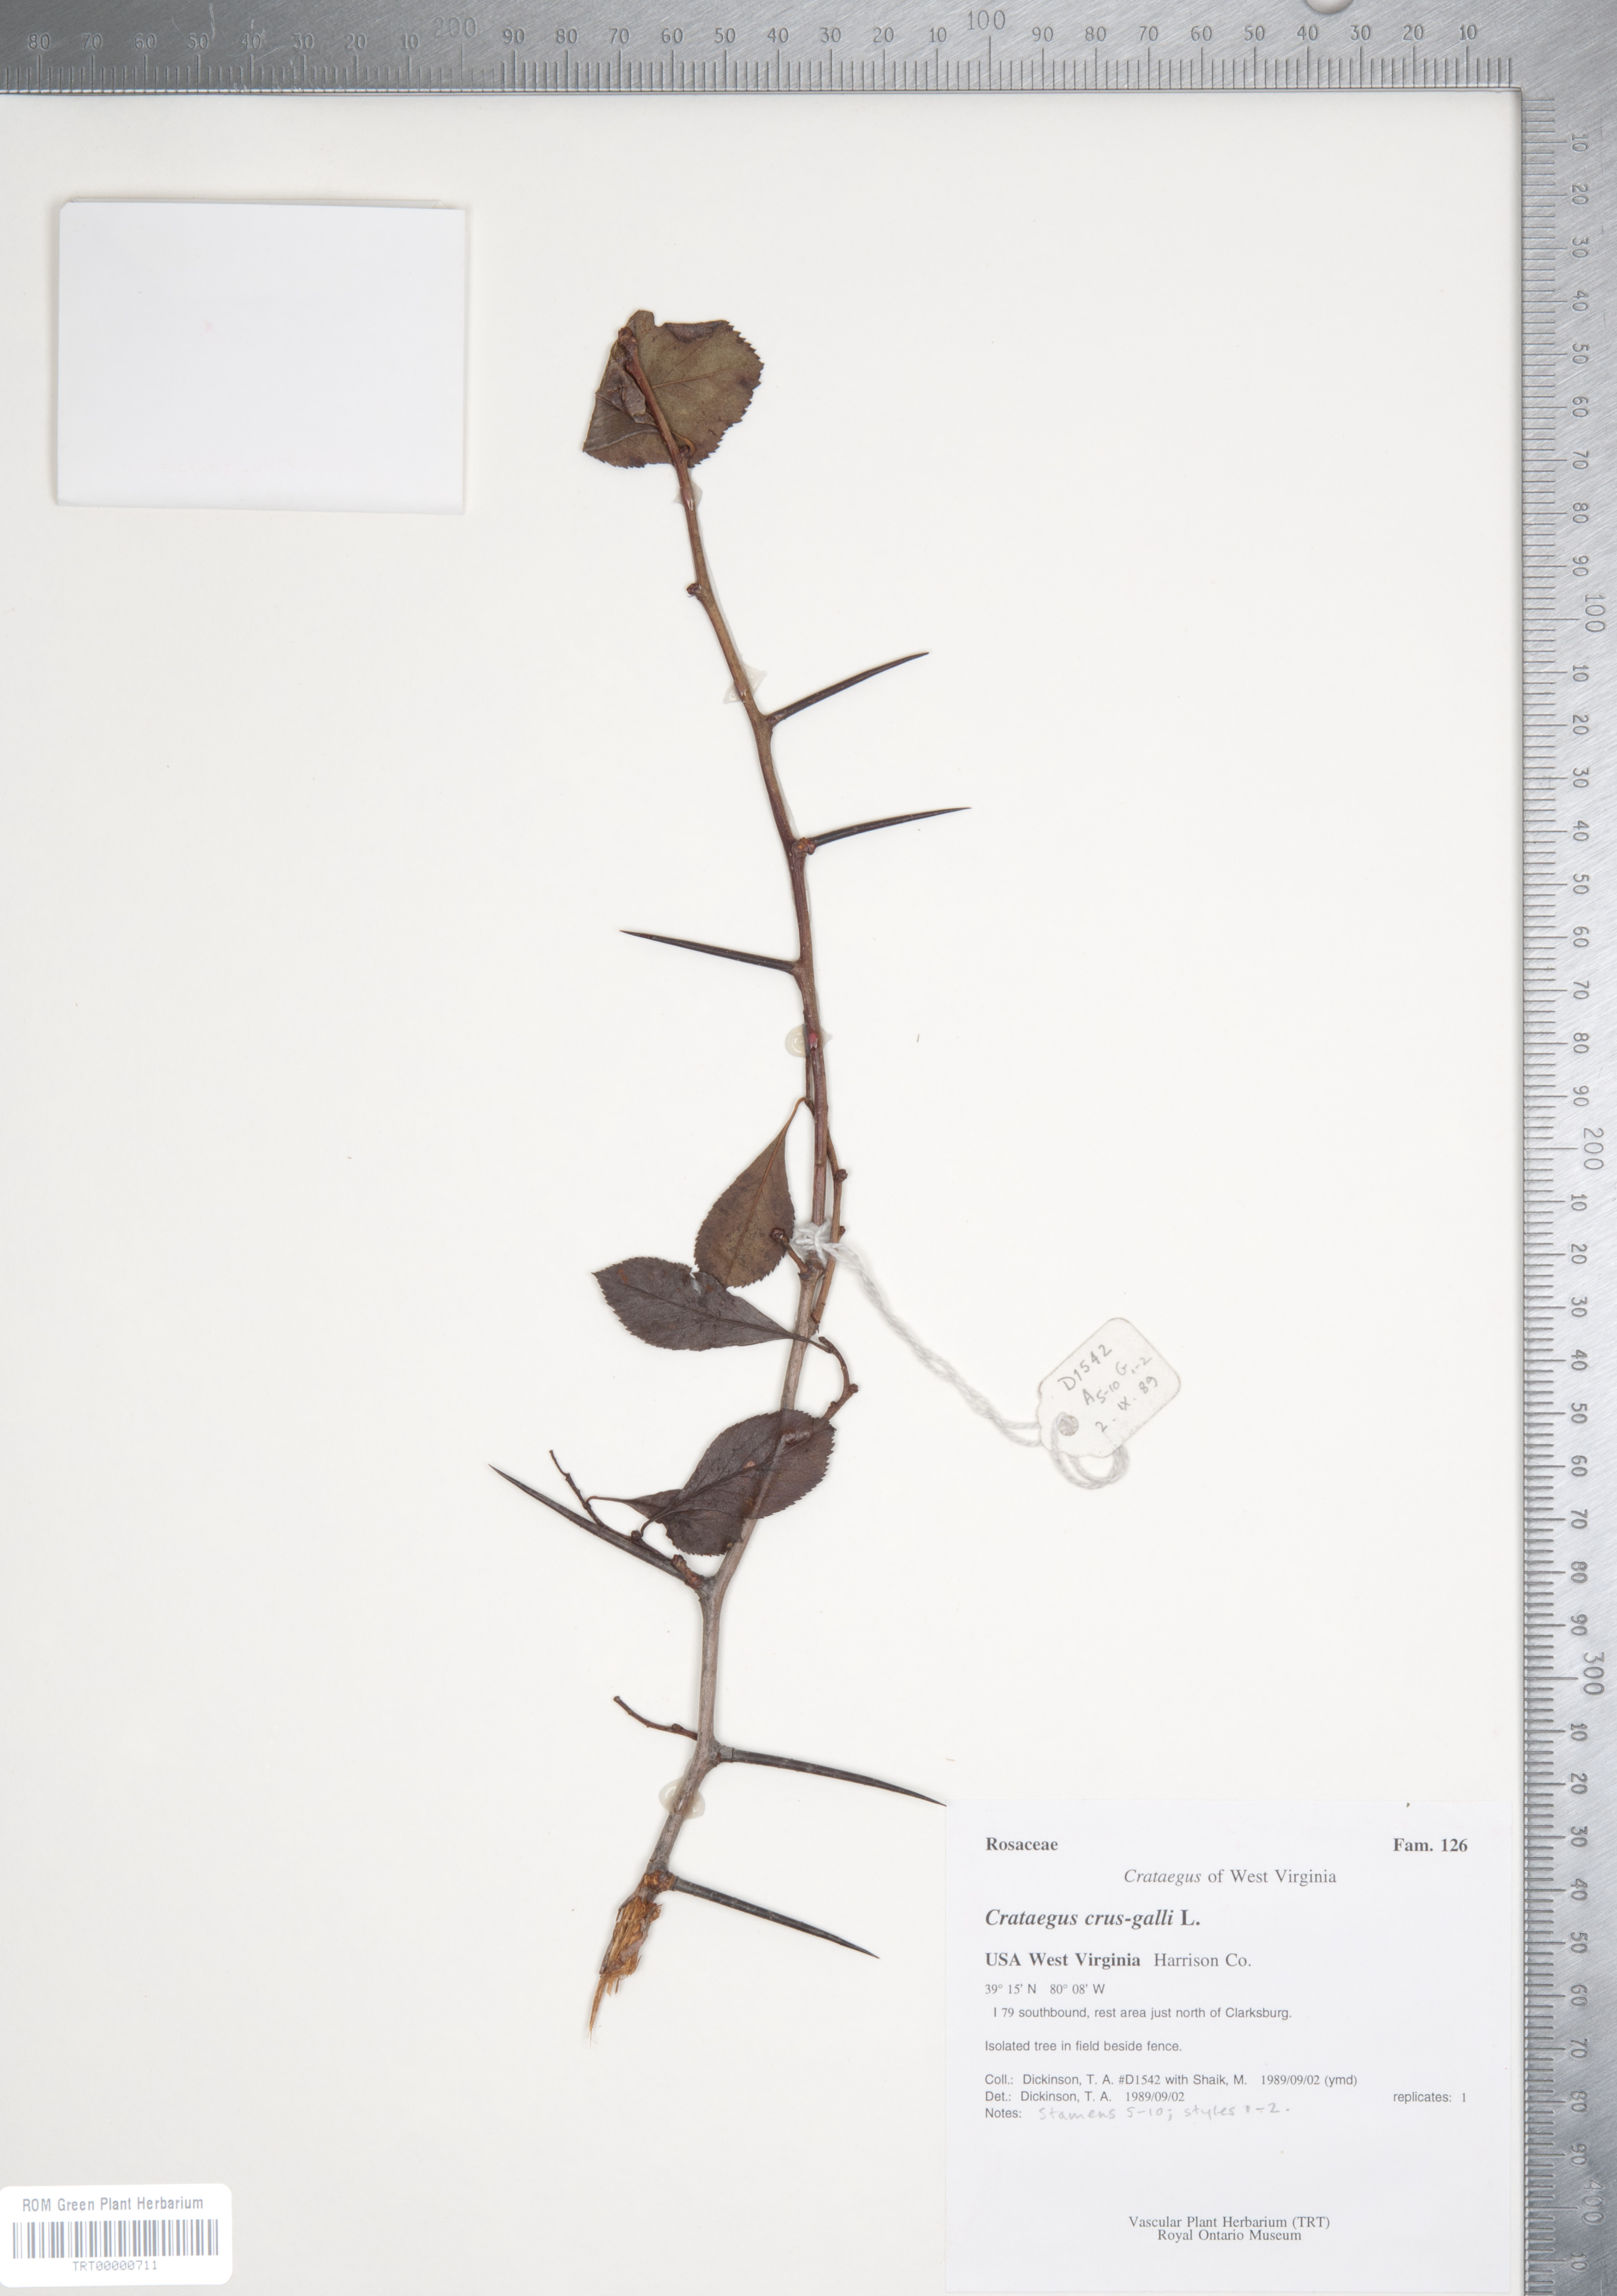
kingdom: Plantae
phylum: Tracheophyta
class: Magnoliopsida
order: Rosales
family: Rosaceae
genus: Crataegus
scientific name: Crataegus crus-galli
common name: Cockspurthorn
